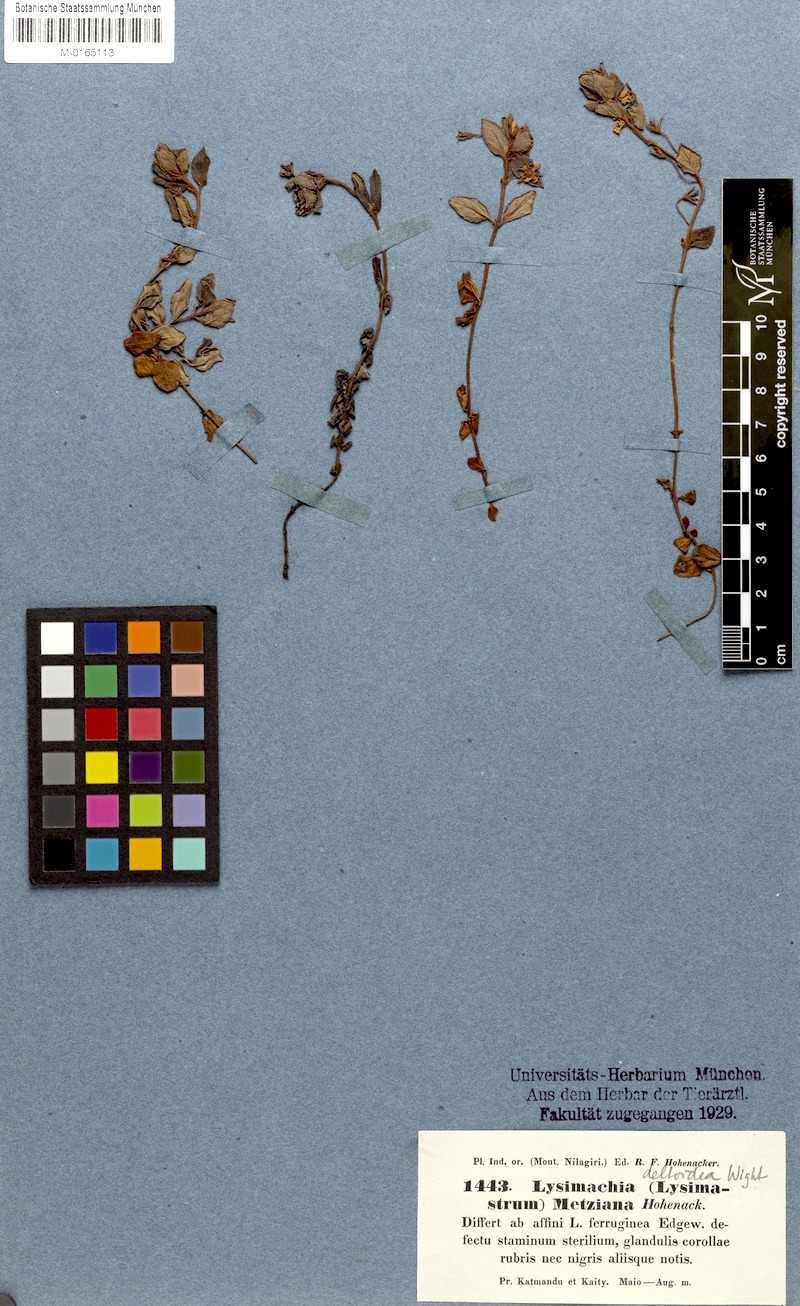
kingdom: Plantae
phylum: Tracheophyta
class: Magnoliopsida
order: Ericales
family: Primulaceae
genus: Lysimachia
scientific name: Lysimachia deltoidea
